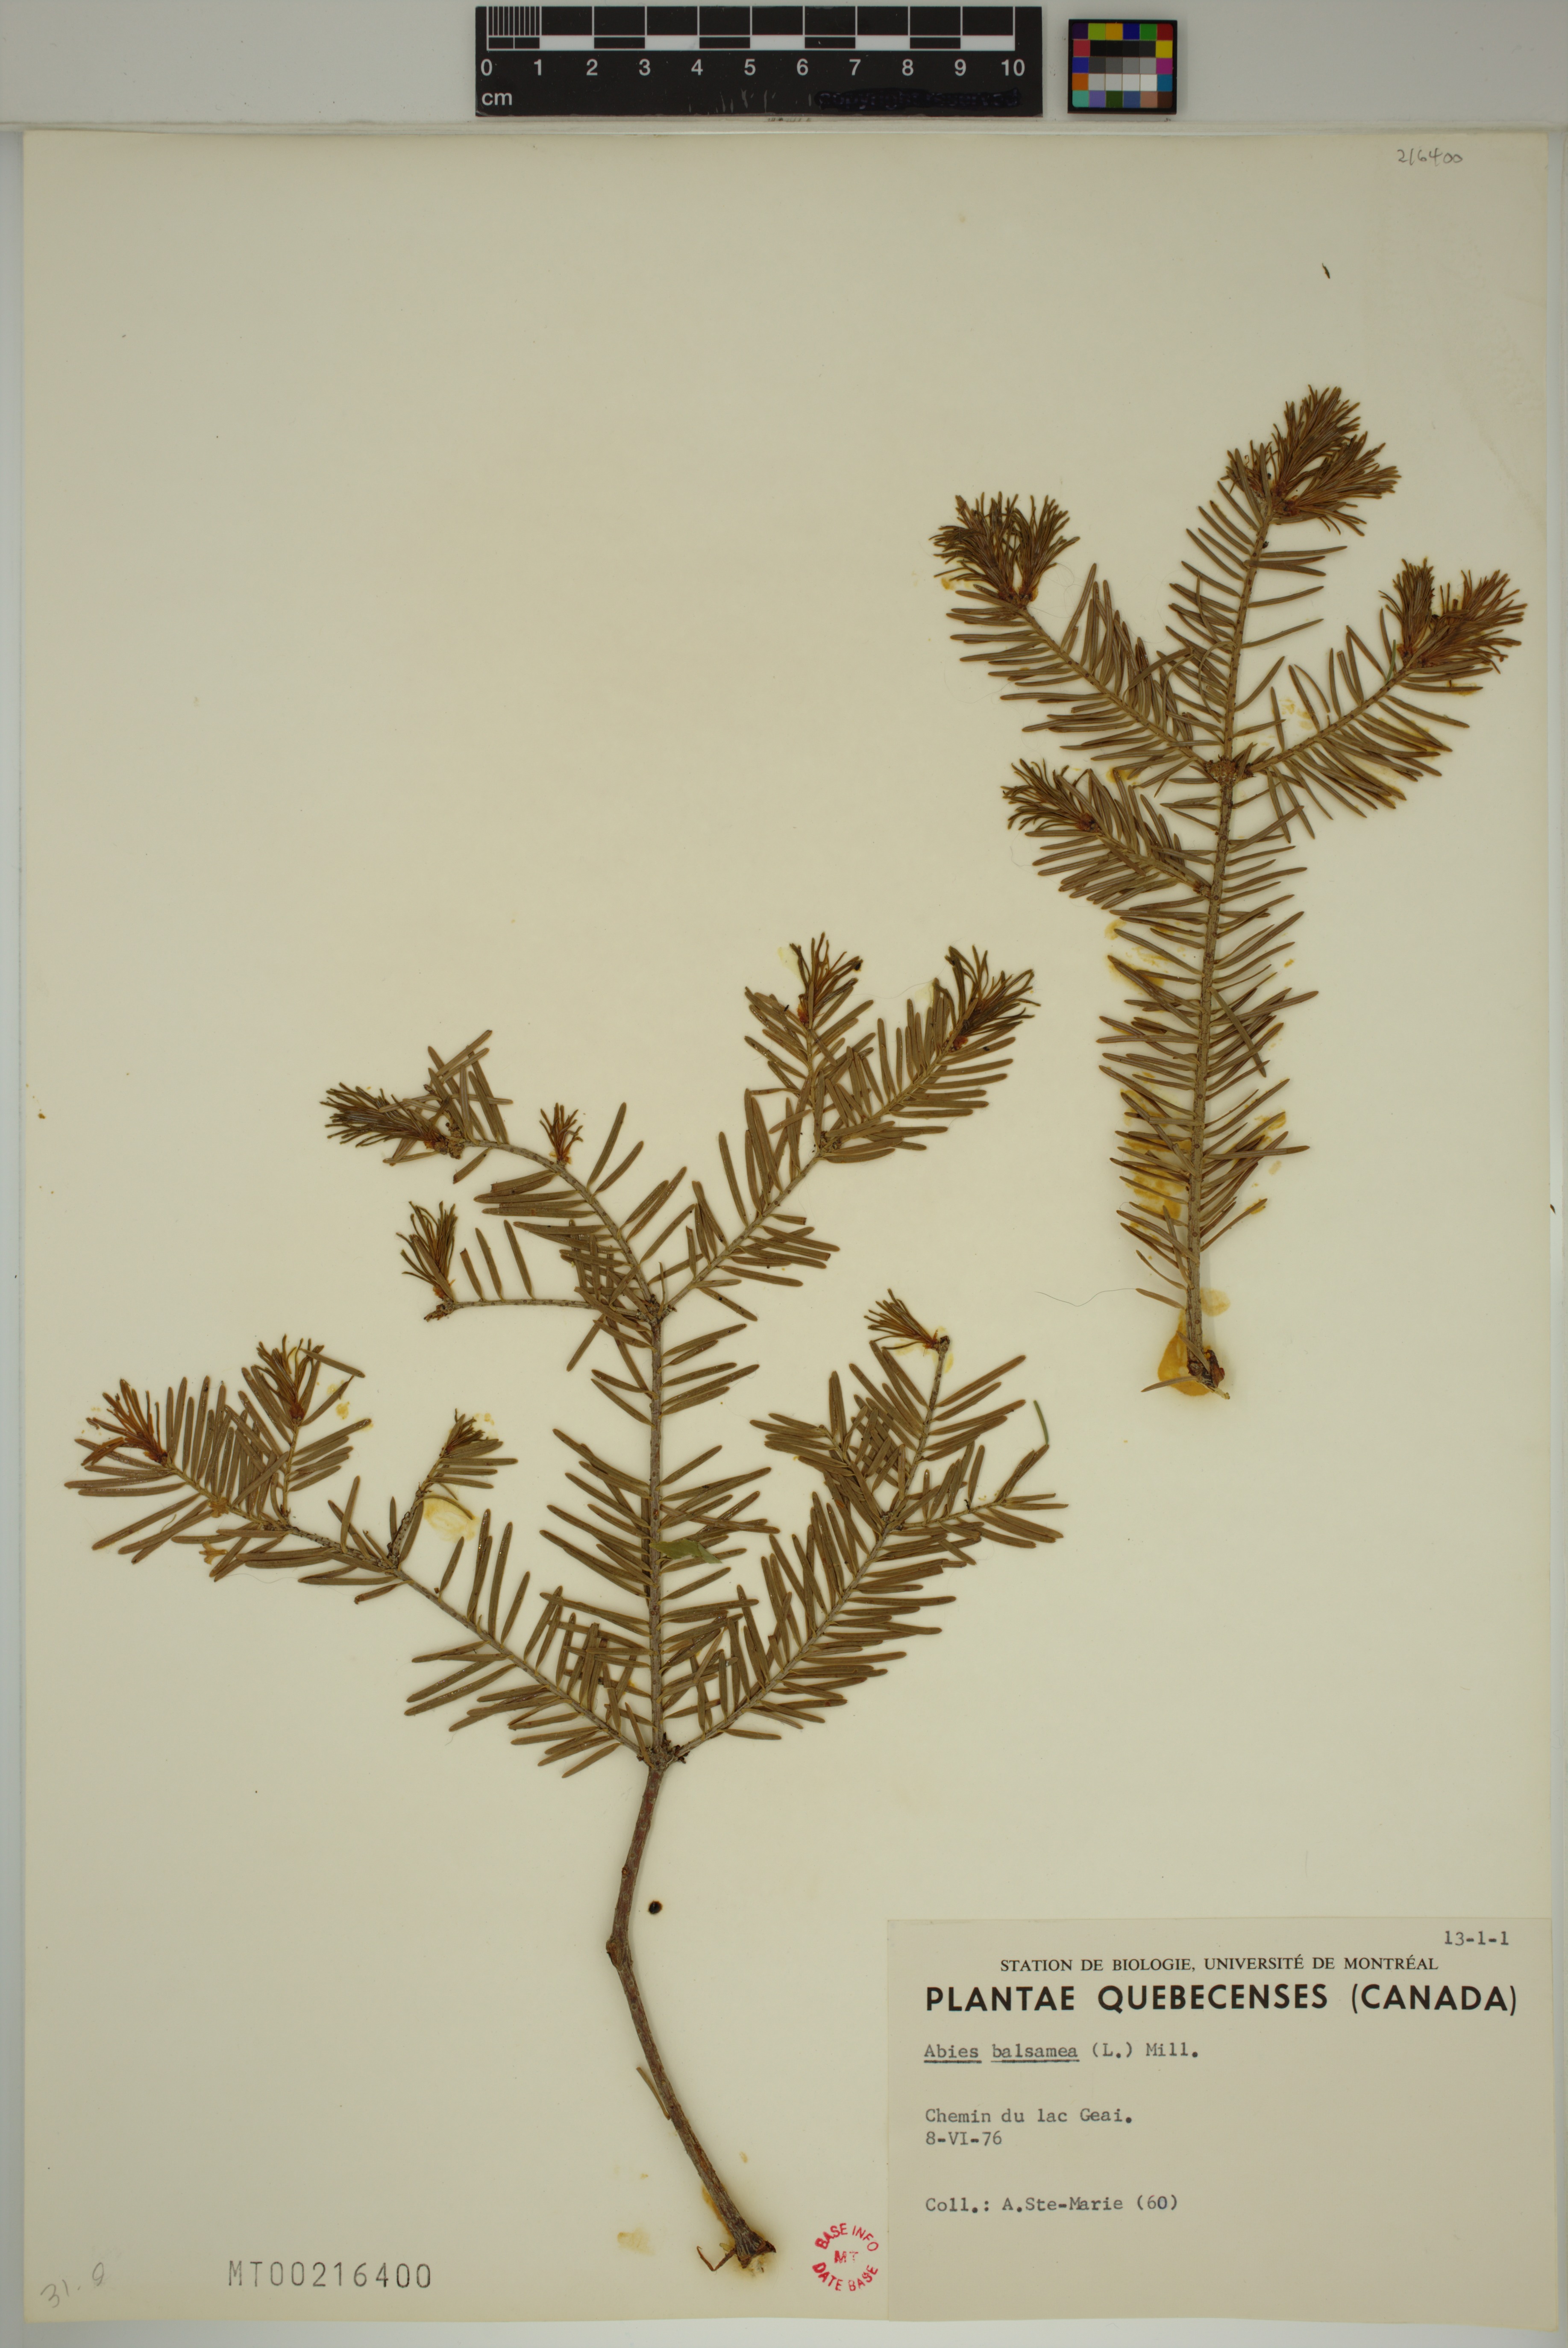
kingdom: Plantae
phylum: Tracheophyta
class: Pinopsida
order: Pinales
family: Pinaceae
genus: Abies
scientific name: Abies balsamea
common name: Balsam fir
